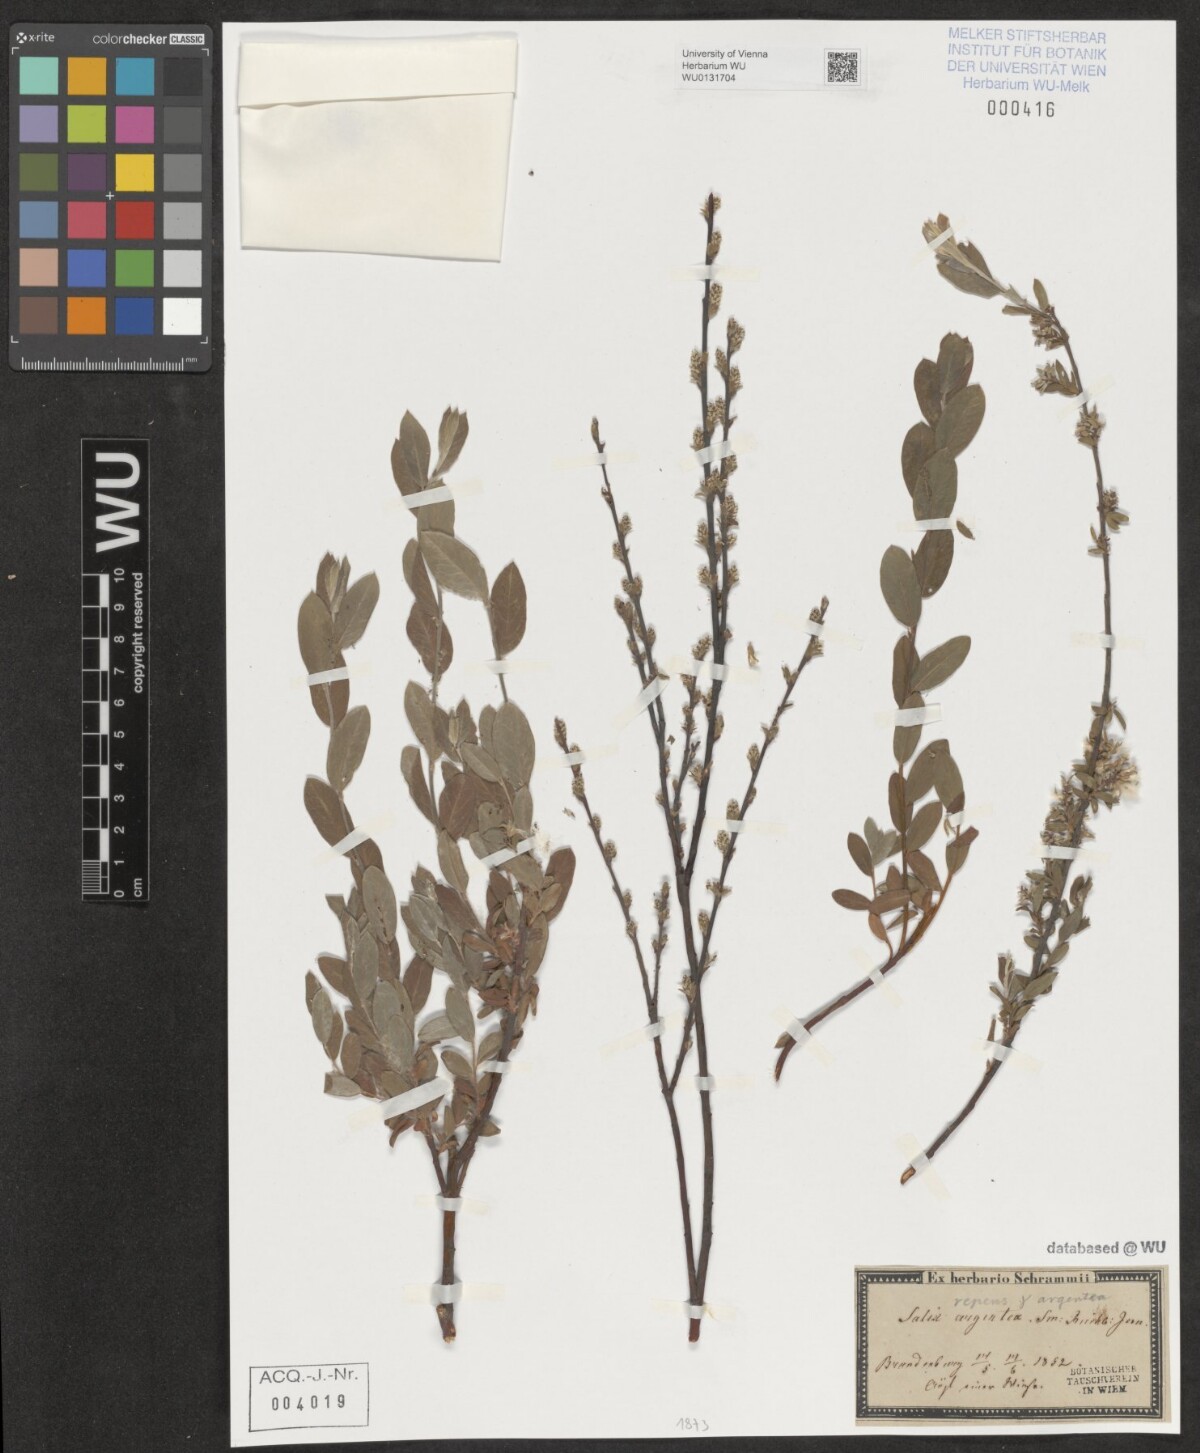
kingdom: Plantae
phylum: Tracheophyta
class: Magnoliopsida
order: Malpighiales
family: Salicaceae
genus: Salix
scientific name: Salix repens
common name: Creeping willow
